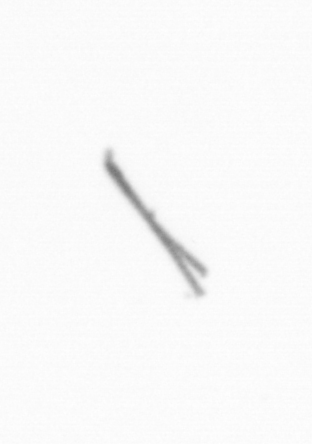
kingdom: Chromista
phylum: Ochrophyta
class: Bacillariophyceae
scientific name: Bacillariophyceae
